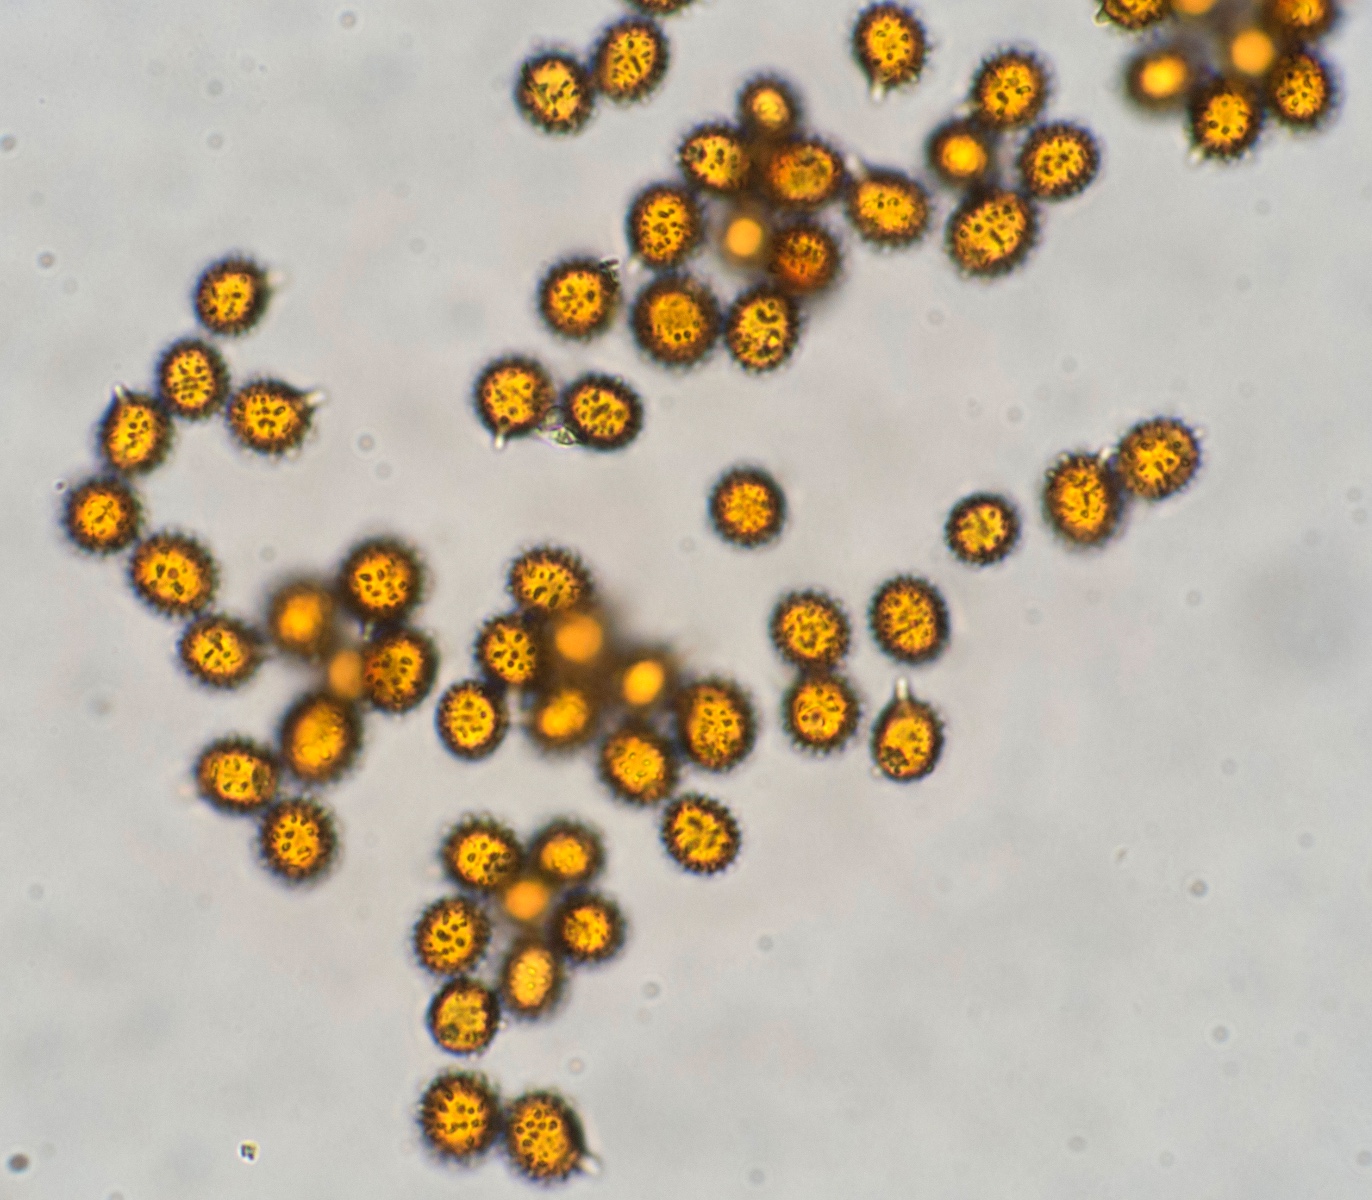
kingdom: Fungi
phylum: Basidiomycota
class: Agaricomycetes
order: Russulales
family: Russulaceae
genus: Russula
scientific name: Russula firmula
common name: nåleskarp skørhat
